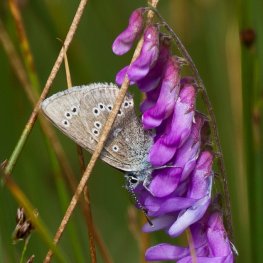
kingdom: Animalia
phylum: Arthropoda
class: Insecta
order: Lepidoptera
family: Lycaenidae
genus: Glaucopsyche
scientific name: Glaucopsyche lygdamus
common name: Silvery Blue
